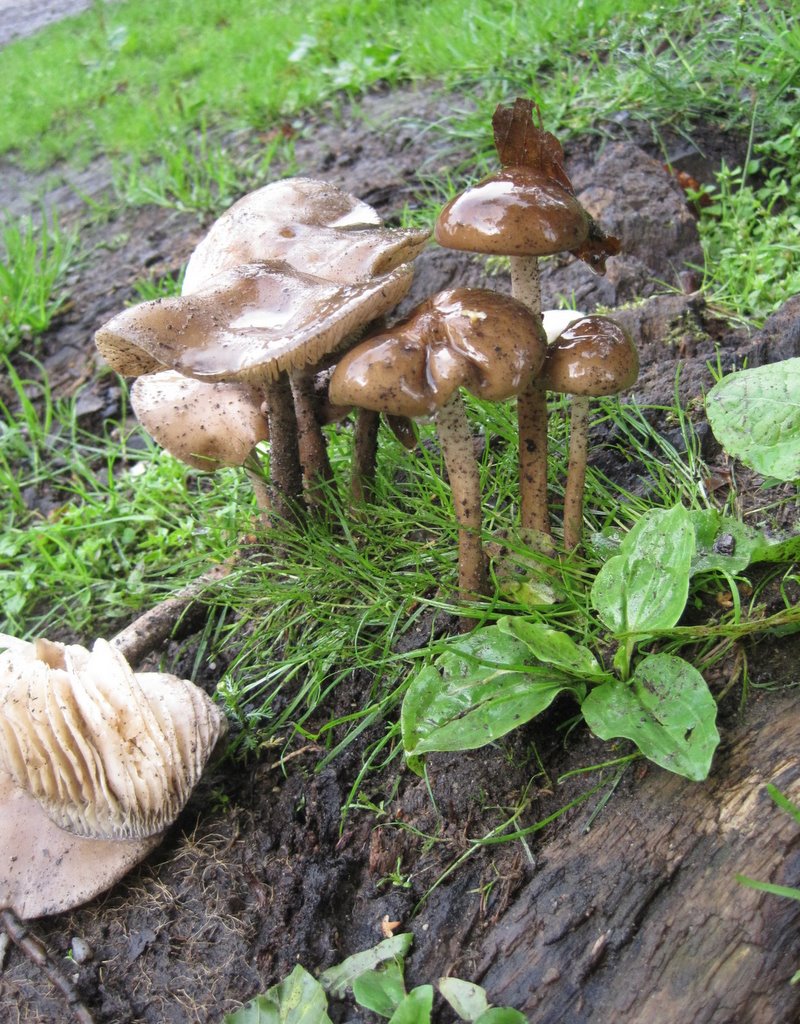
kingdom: Fungi
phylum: Basidiomycota
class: Agaricomycetes
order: Agaricales
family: Physalacriaceae
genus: Hymenopellis
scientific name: Hymenopellis radicata
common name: almindelig pælerodshat
